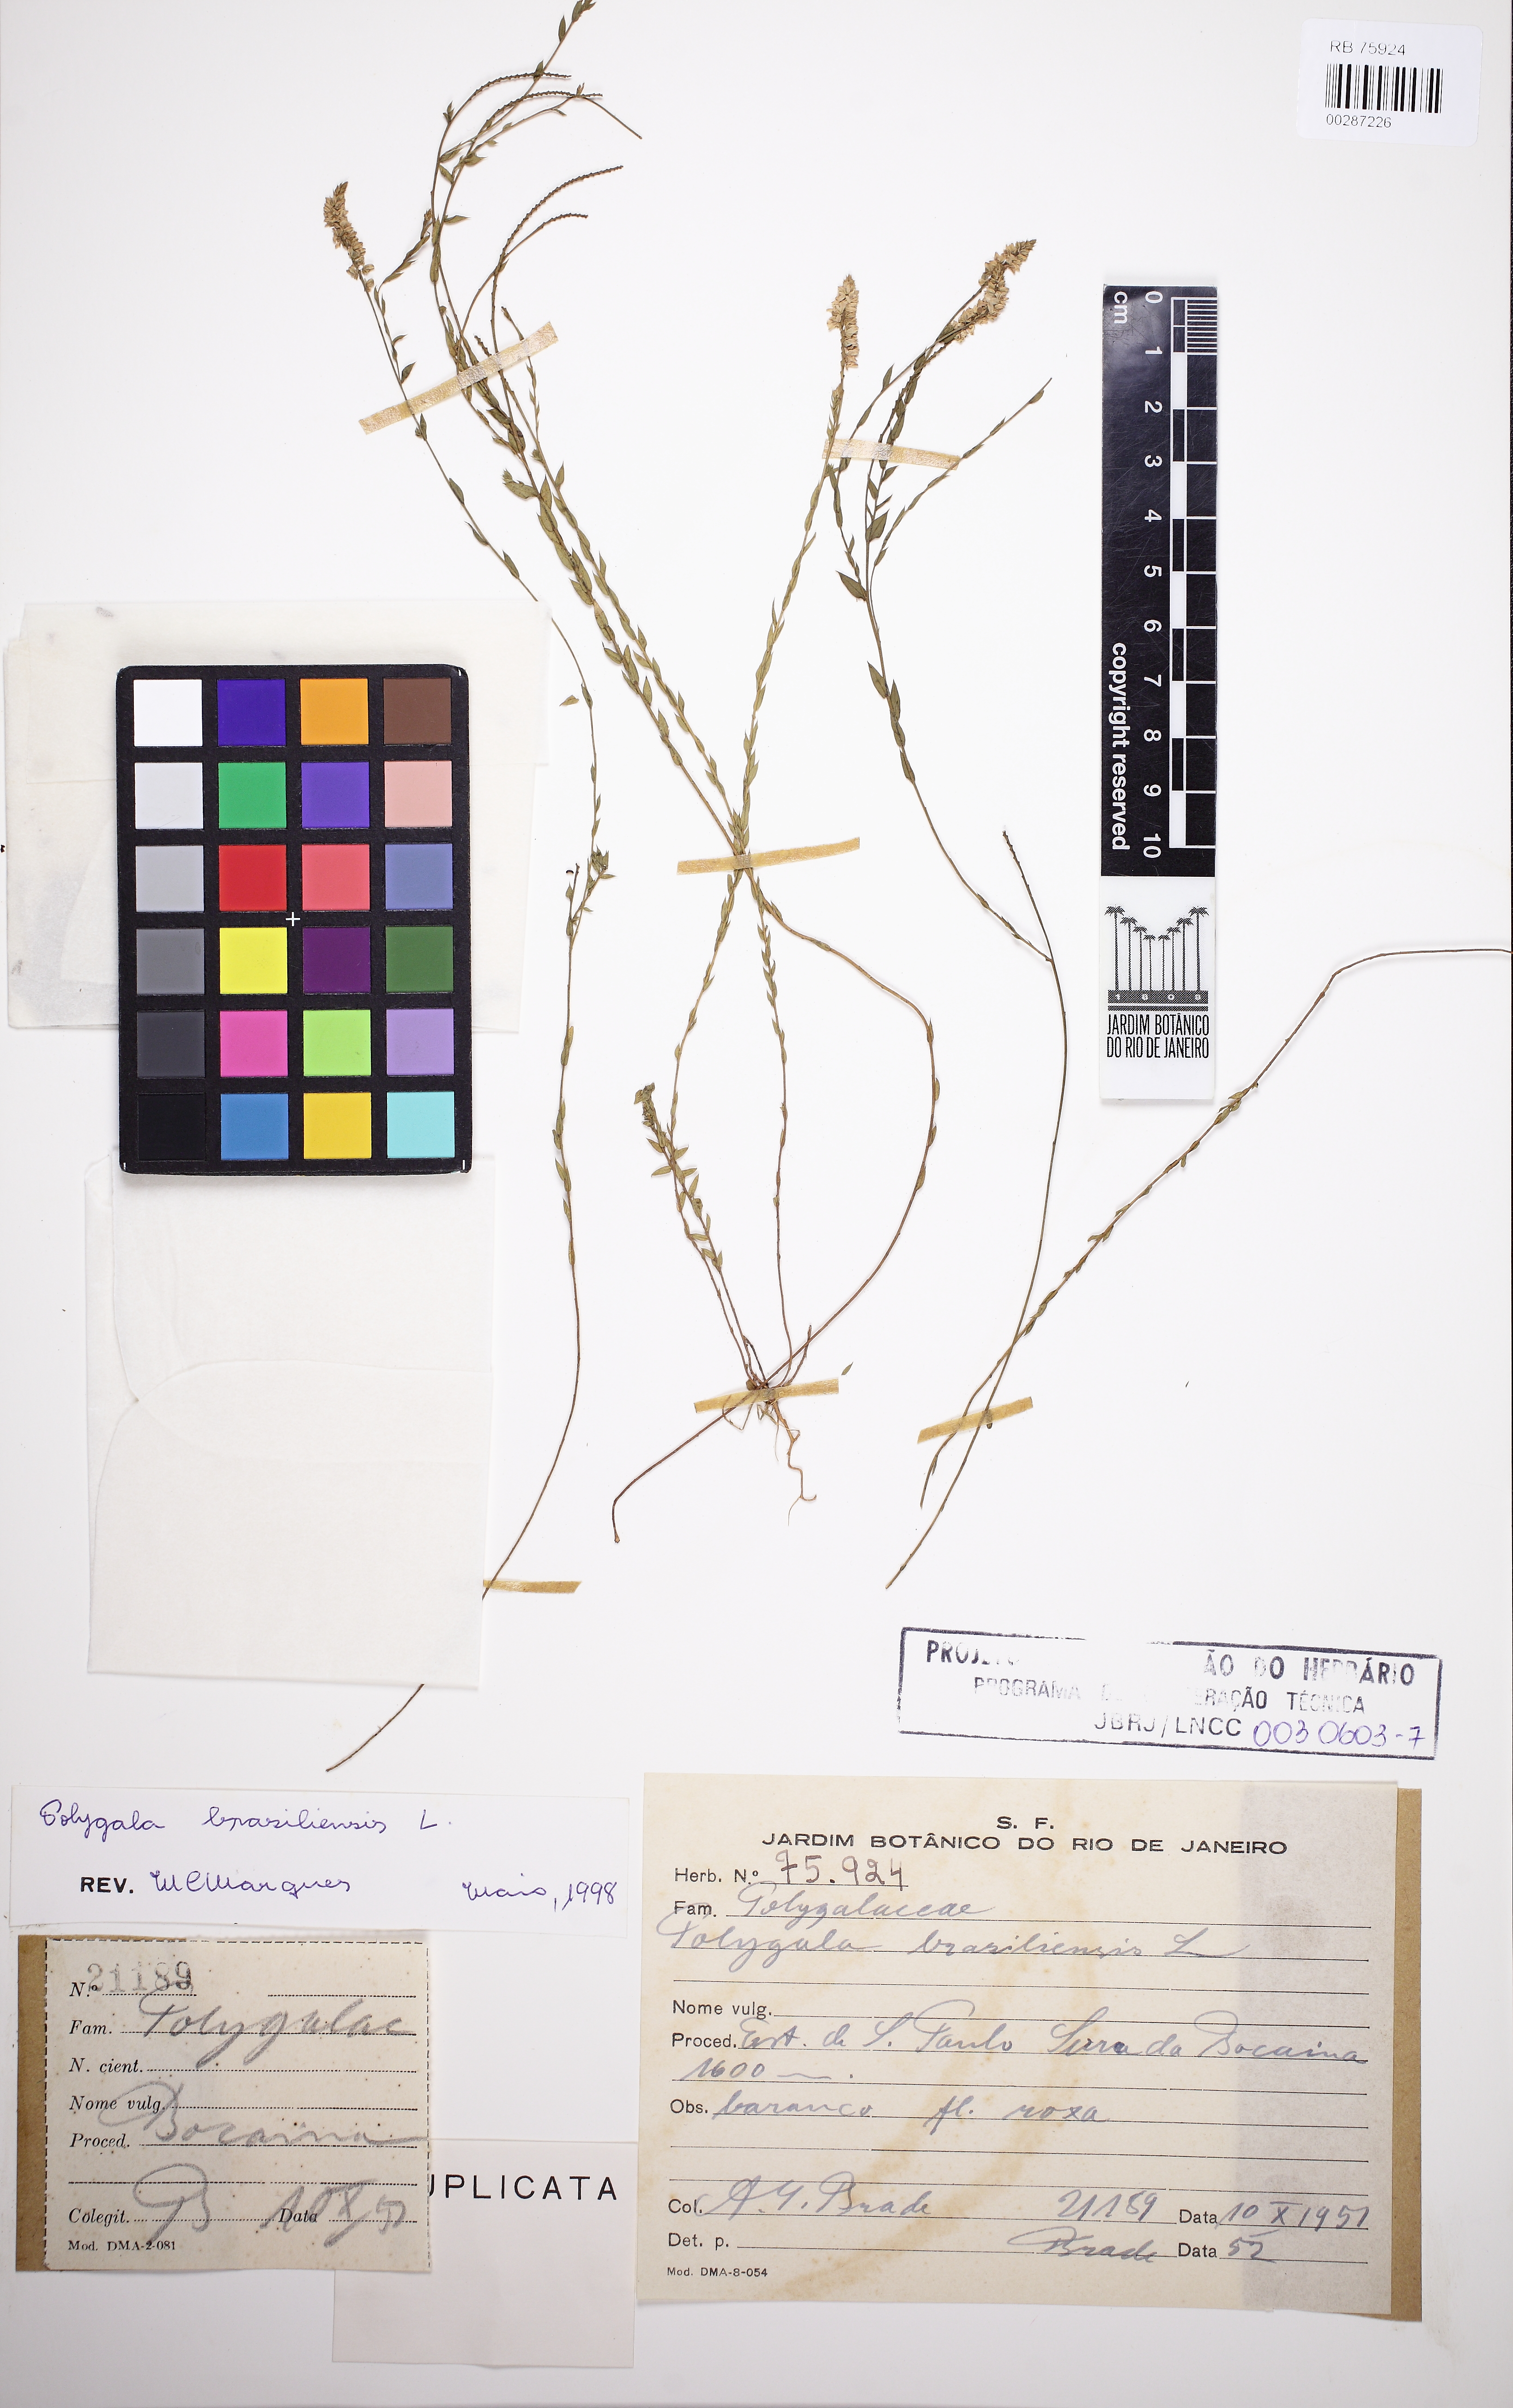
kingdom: Plantae
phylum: Tracheophyta
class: Magnoliopsida
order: Fabales
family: Polygalaceae
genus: Polygala
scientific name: Polygala brasiliensis
